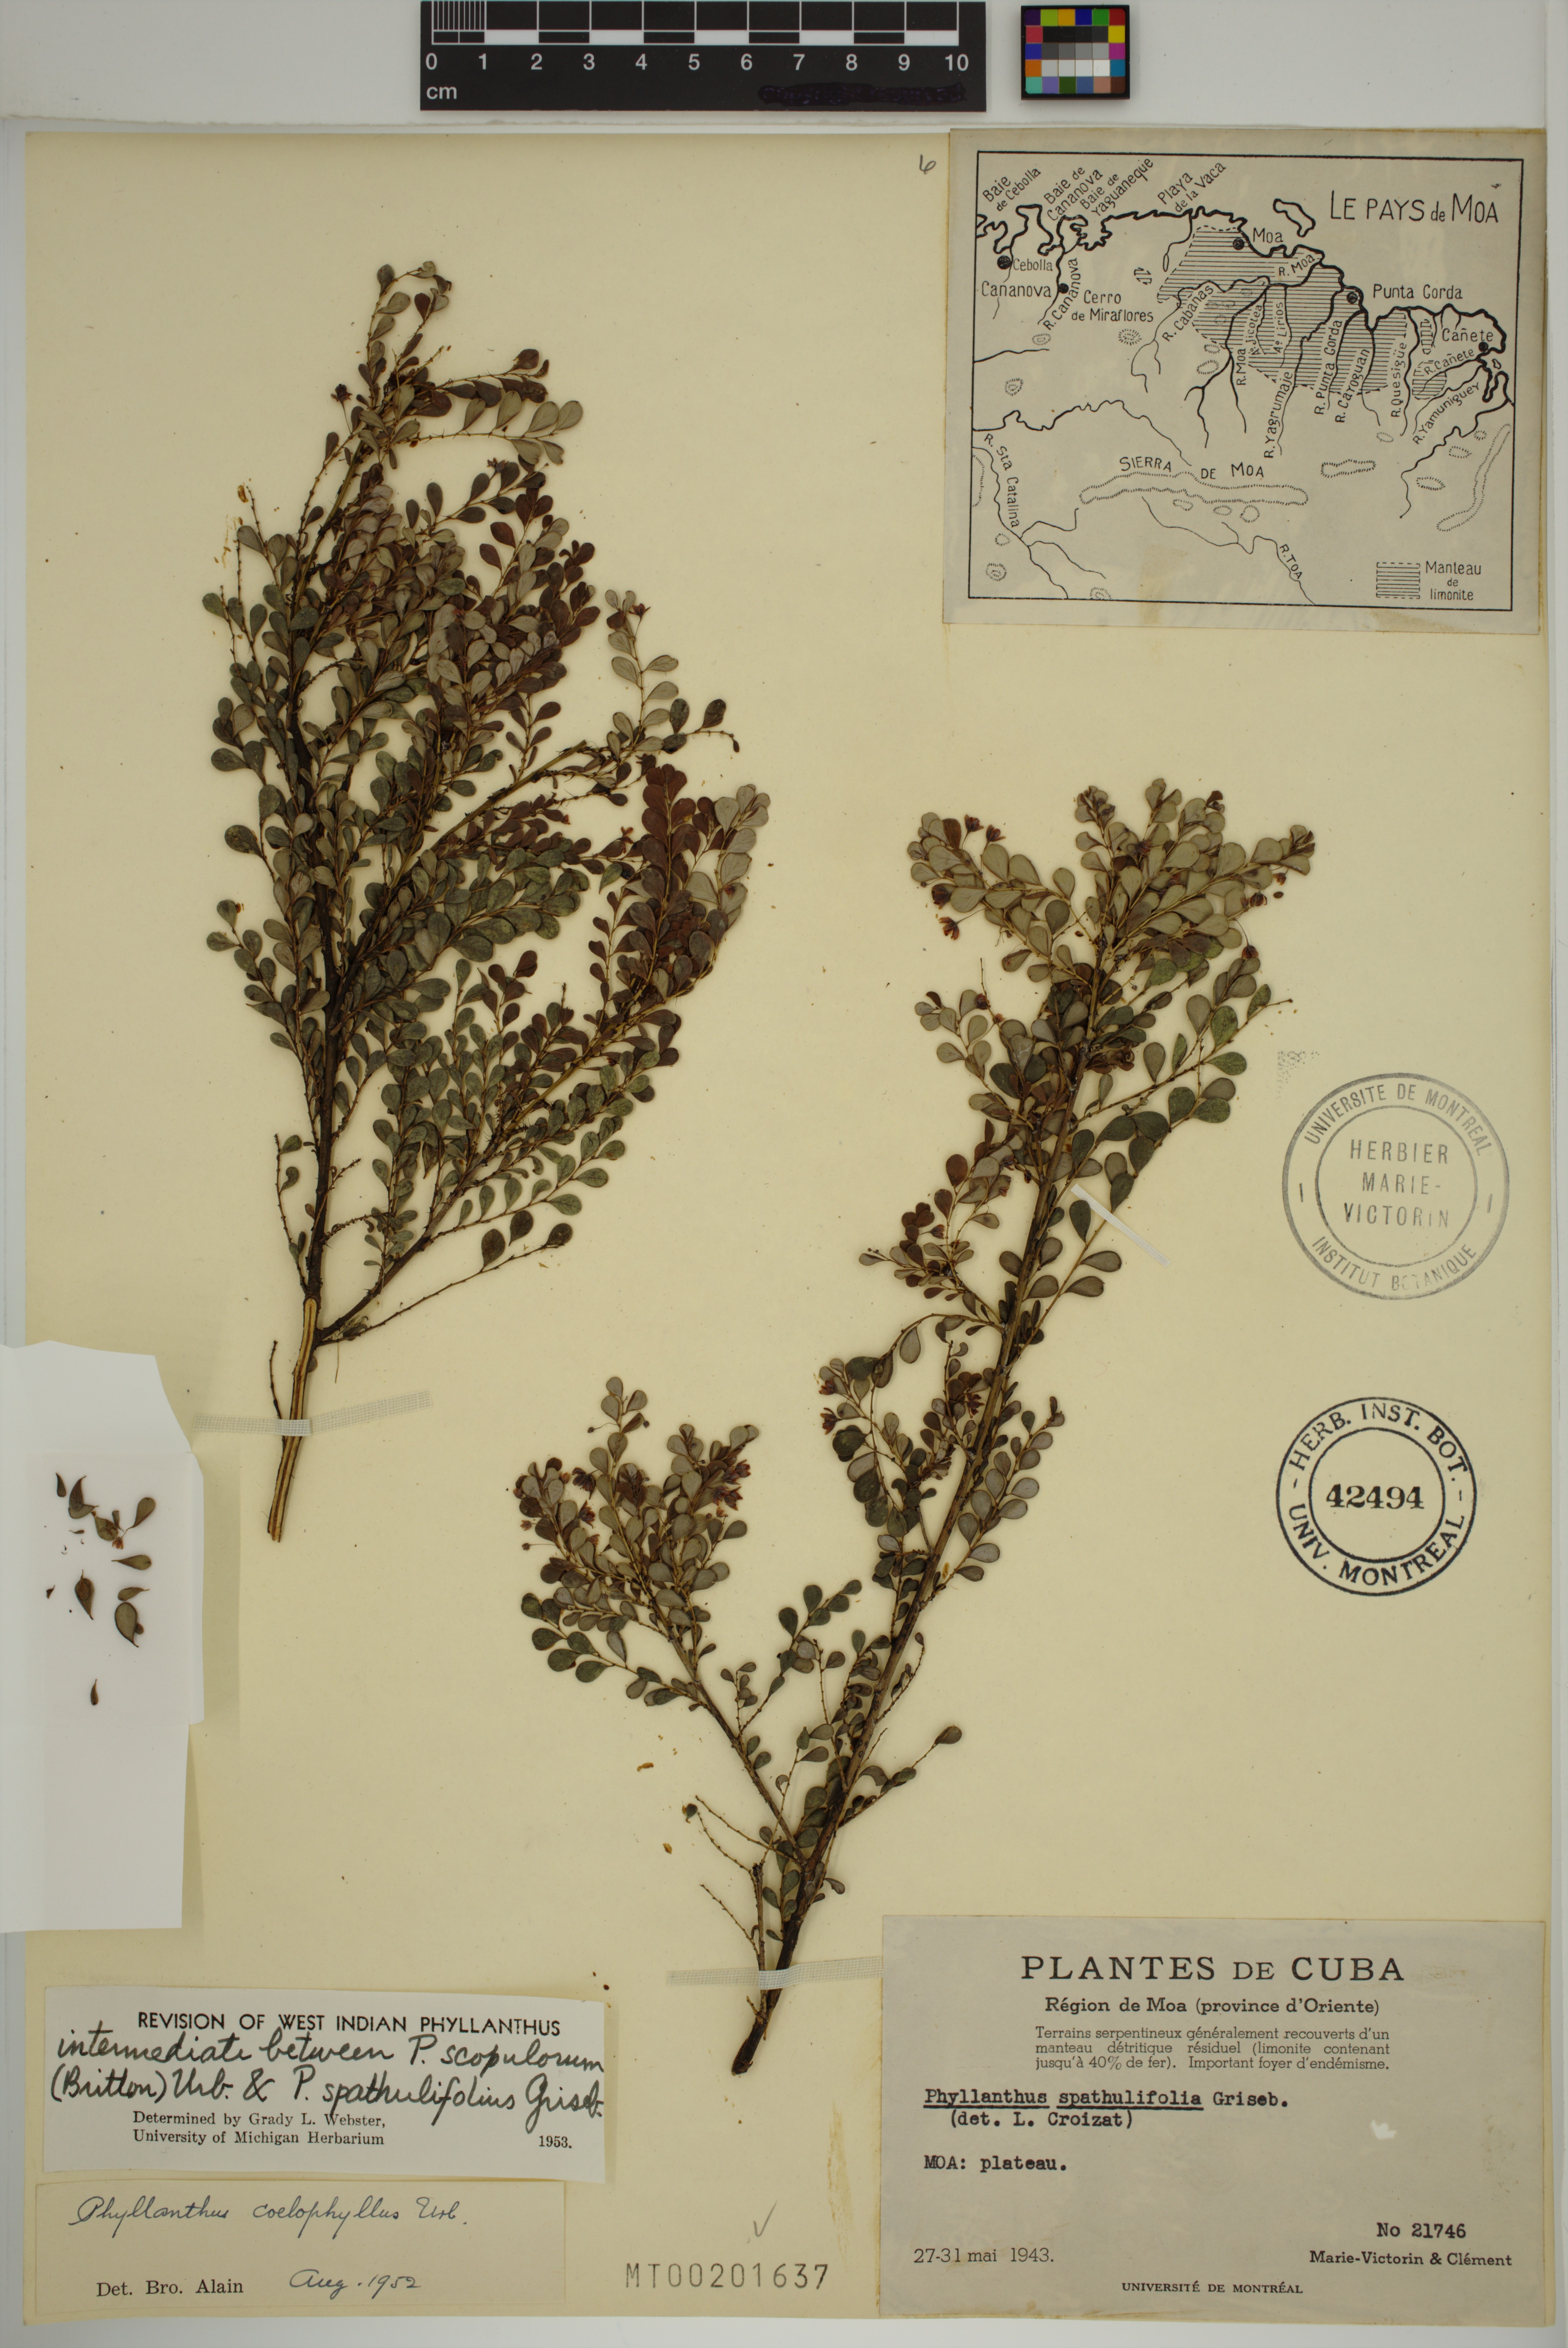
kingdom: Plantae
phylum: Tracheophyta
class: Magnoliopsida
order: Malpighiales
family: Phyllanthaceae
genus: Phyllanthus
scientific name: Phyllanthus chamaecristoides
